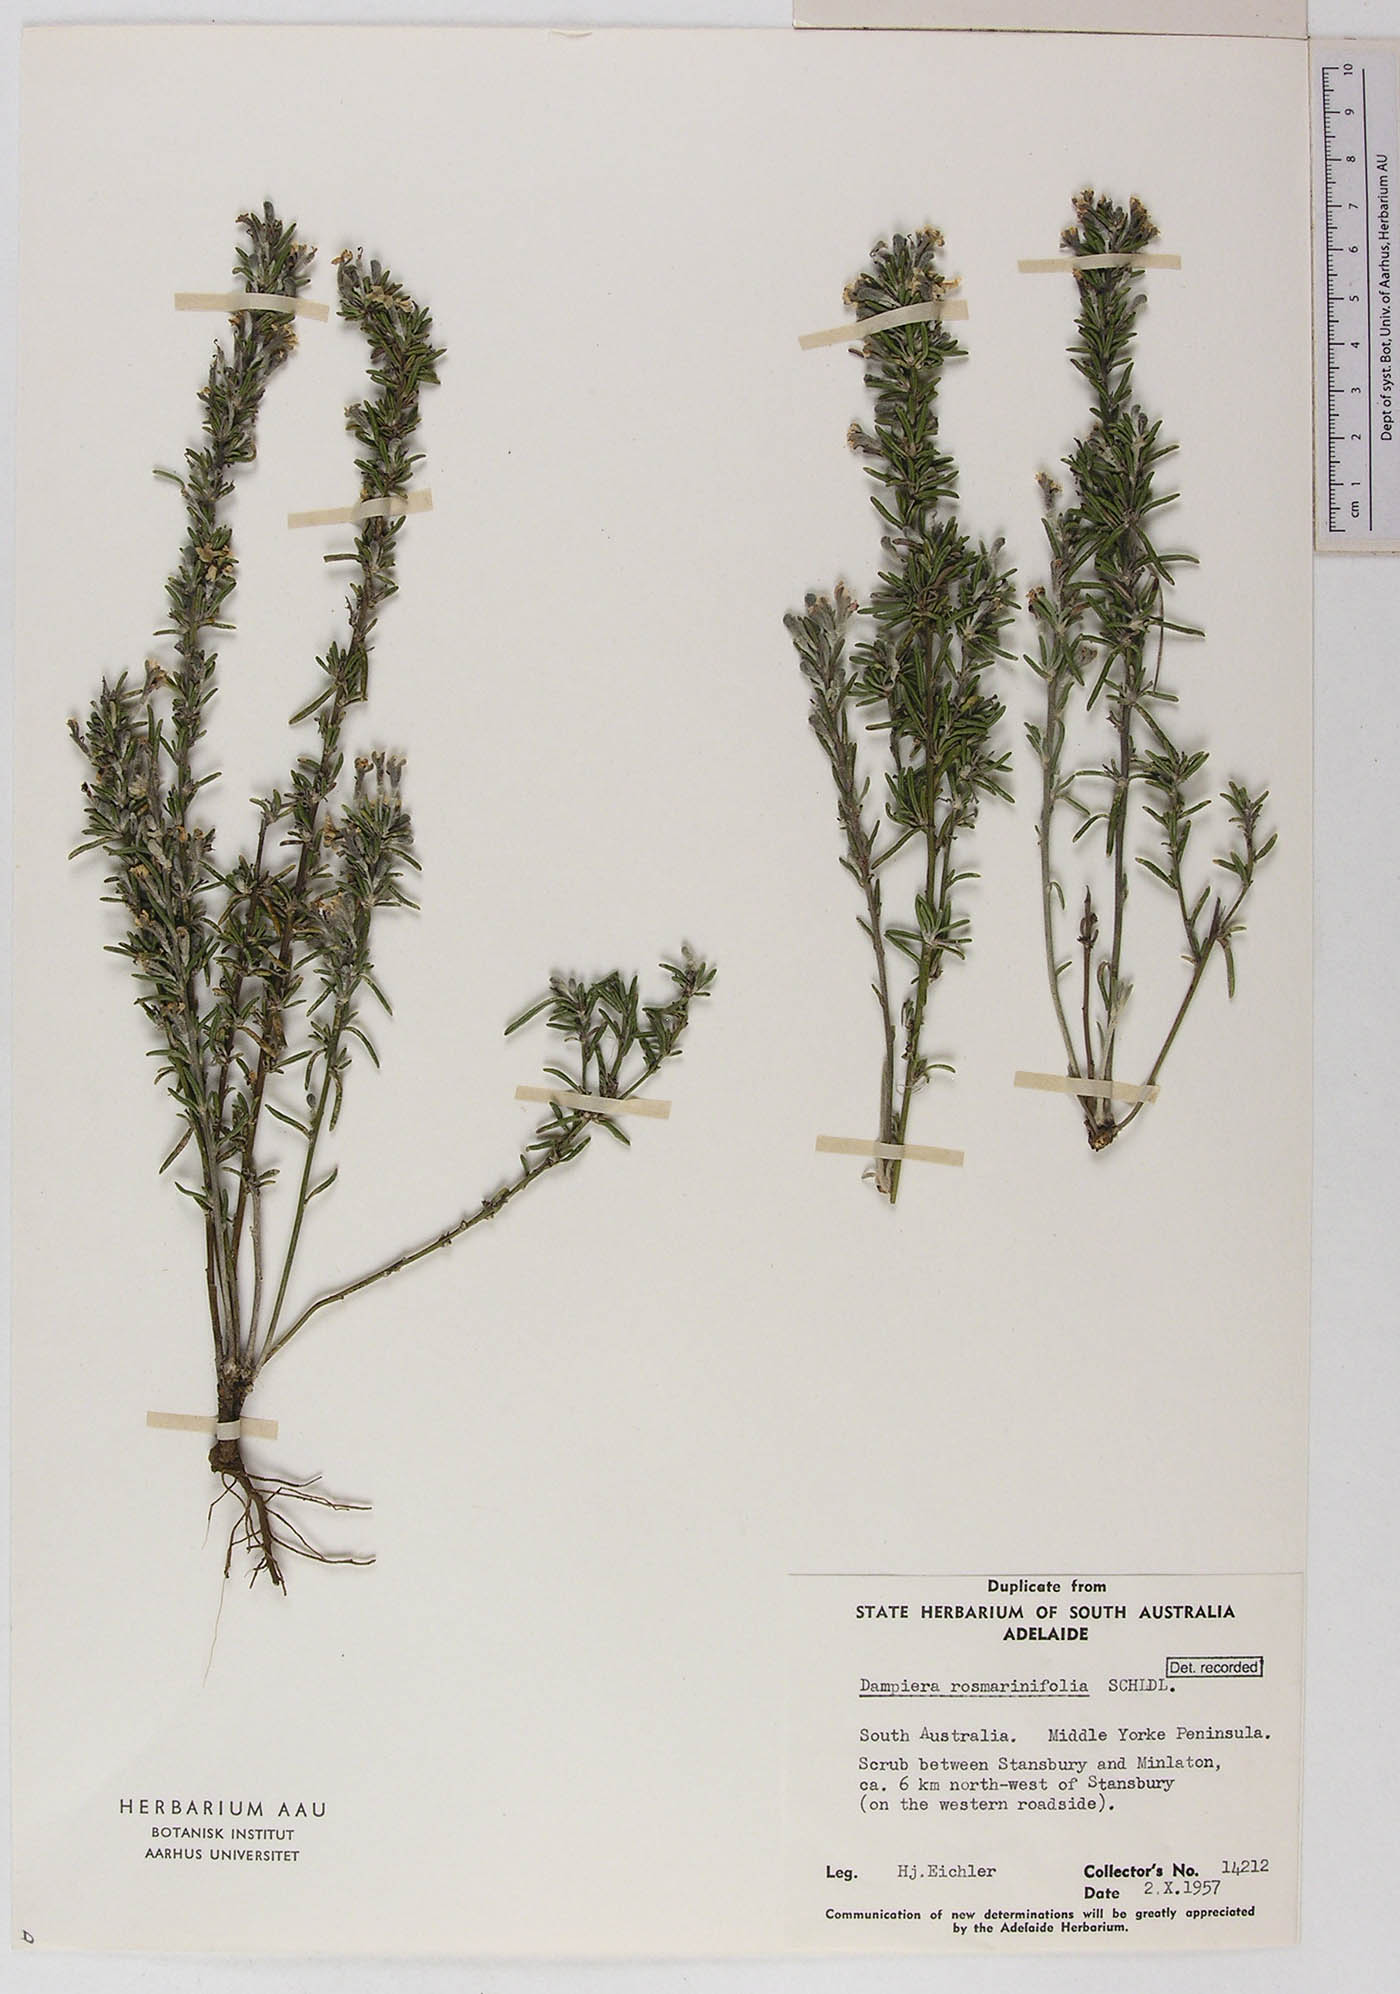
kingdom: Plantae
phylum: Tracheophyta
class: Magnoliopsida
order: Asterales
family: Goodeniaceae
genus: Dampiera
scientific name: Dampiera rosmarinifolia
